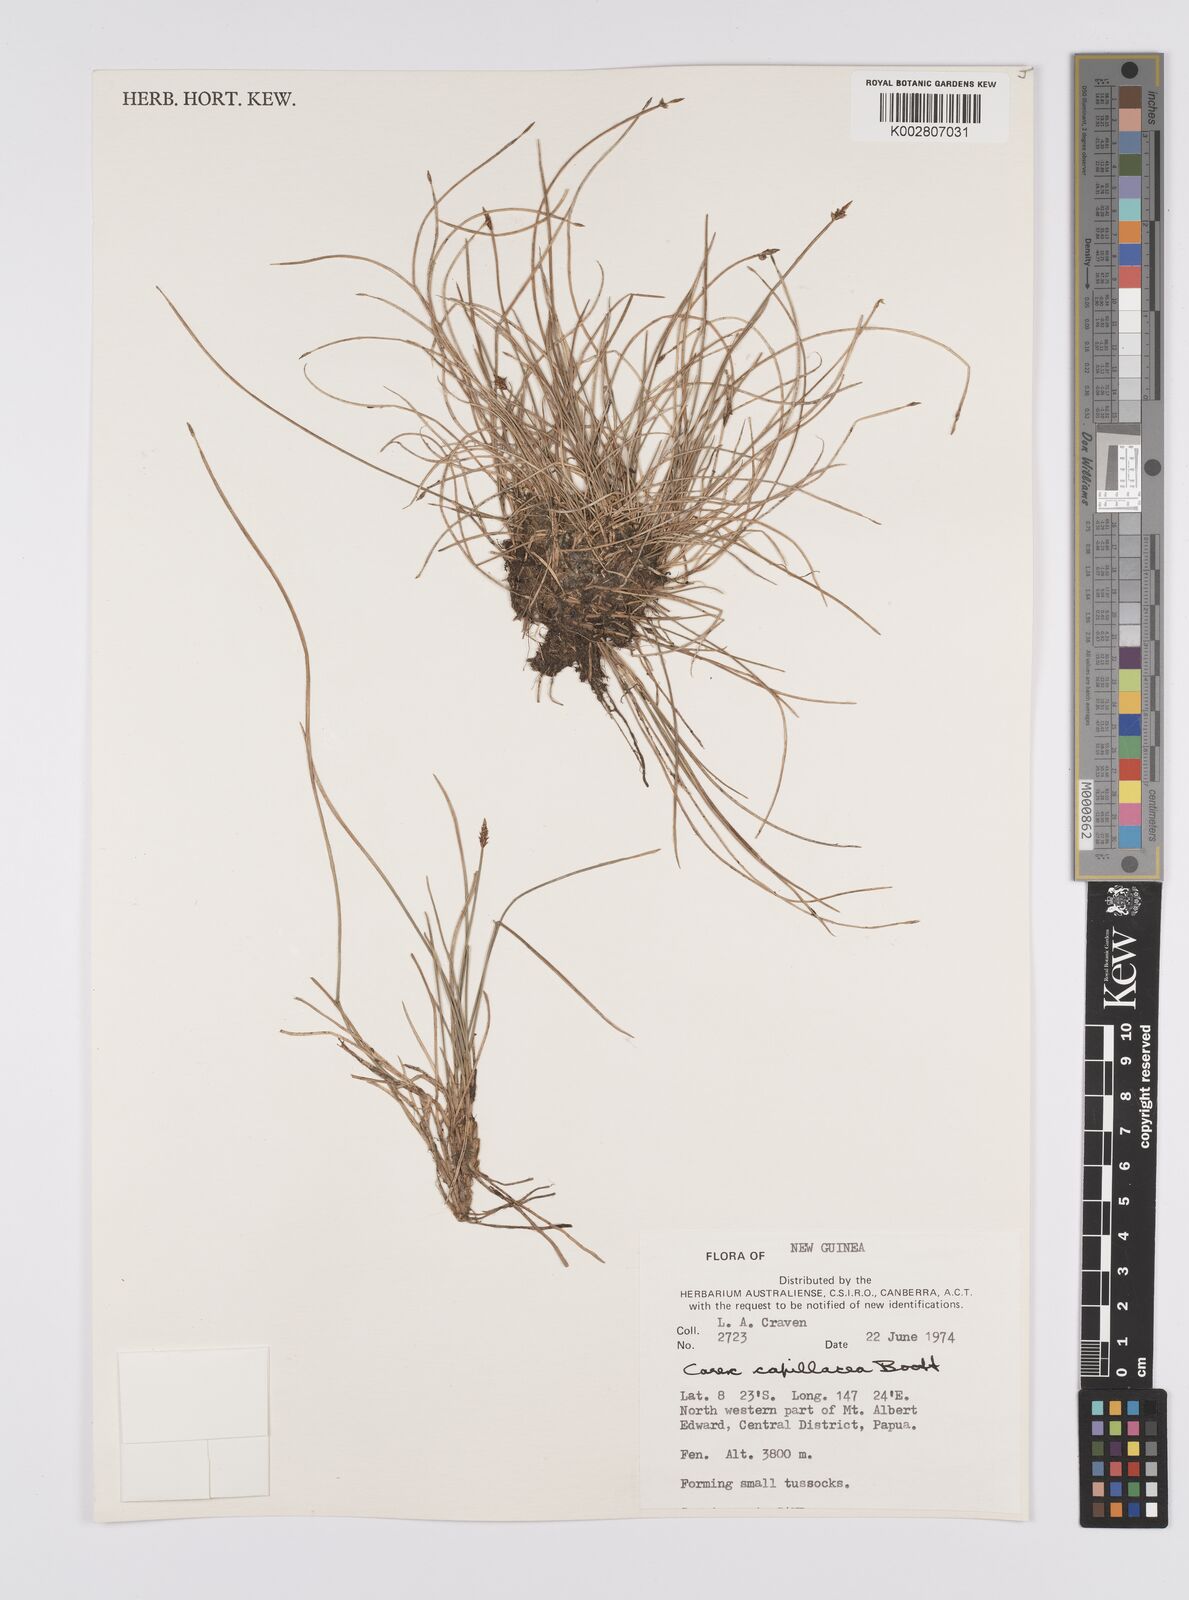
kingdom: Plantae
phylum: Tracheophyta
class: Liliopsida
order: Poales
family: Cyperaceae
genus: Carex
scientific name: Carex capillacea
